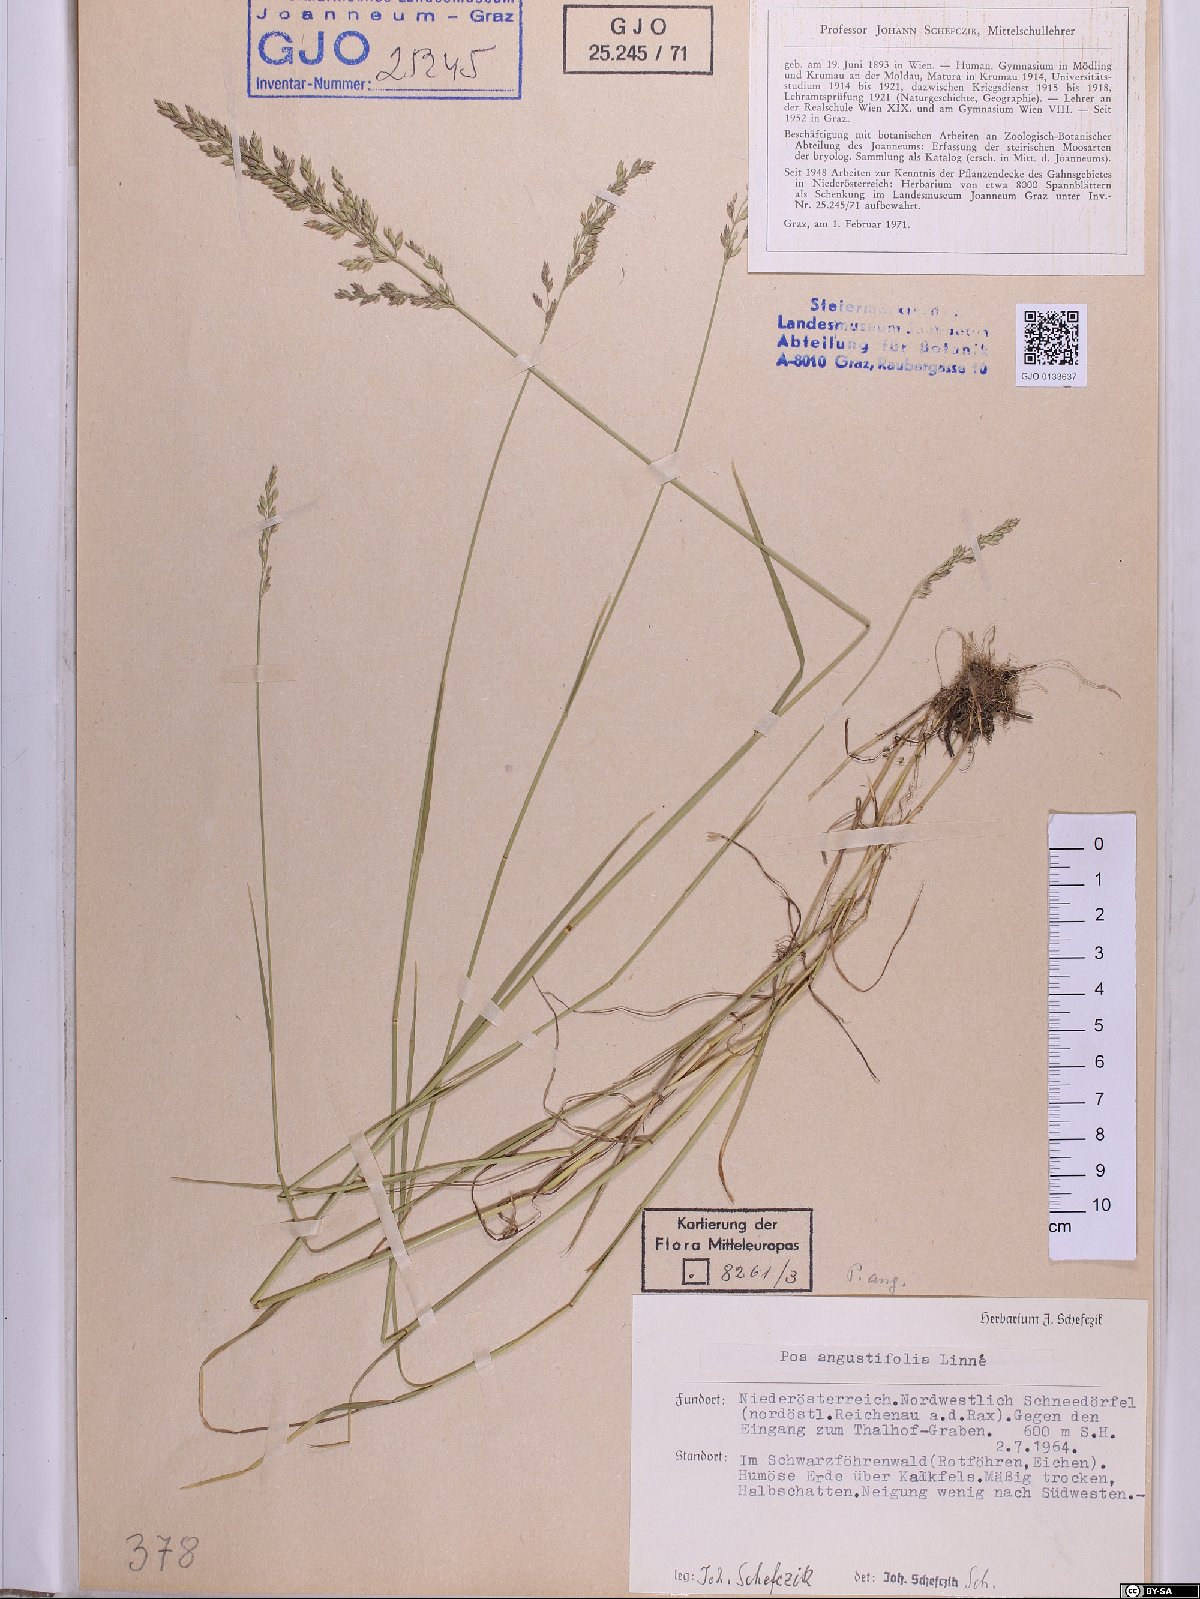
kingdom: Plantae
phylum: Tracheophyta
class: Liliopsida
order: Poales
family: Poaceae
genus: Poa
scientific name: Poa angustifolia
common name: Narrow-leaved meadow-grass
